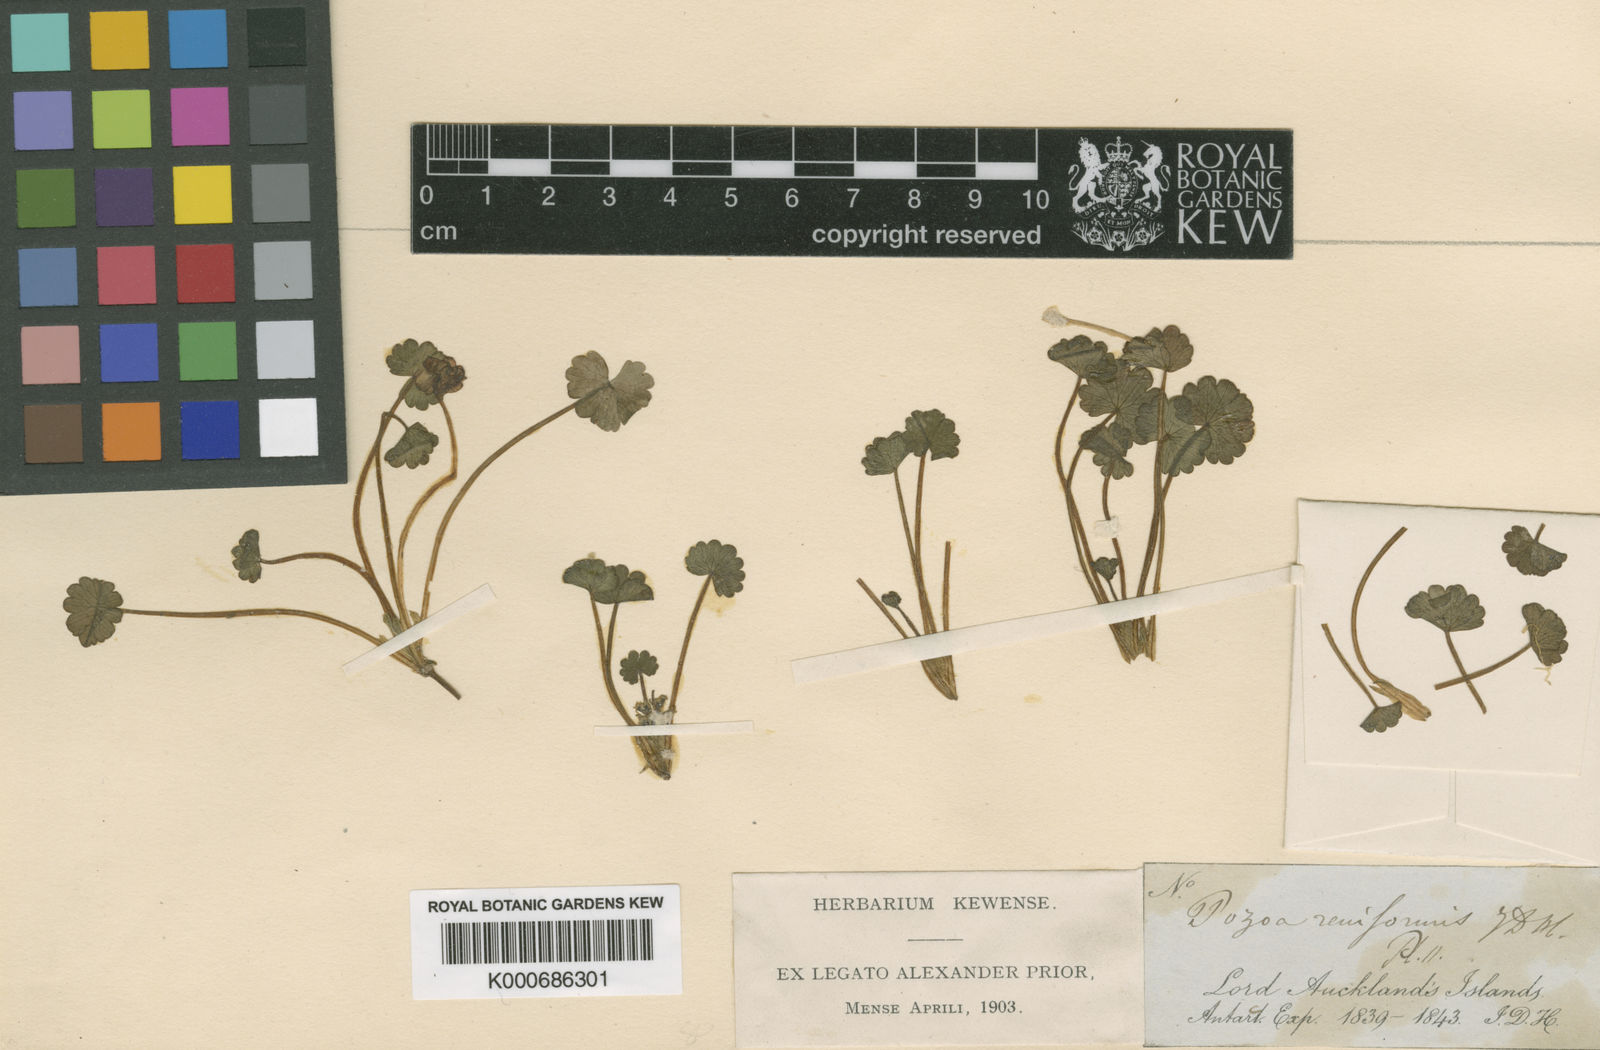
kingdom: Plantae
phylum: Tracheophyta
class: Magnoliopsida
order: Apiales
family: Apiaceae
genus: Azorella
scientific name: Azorella schizeilema
